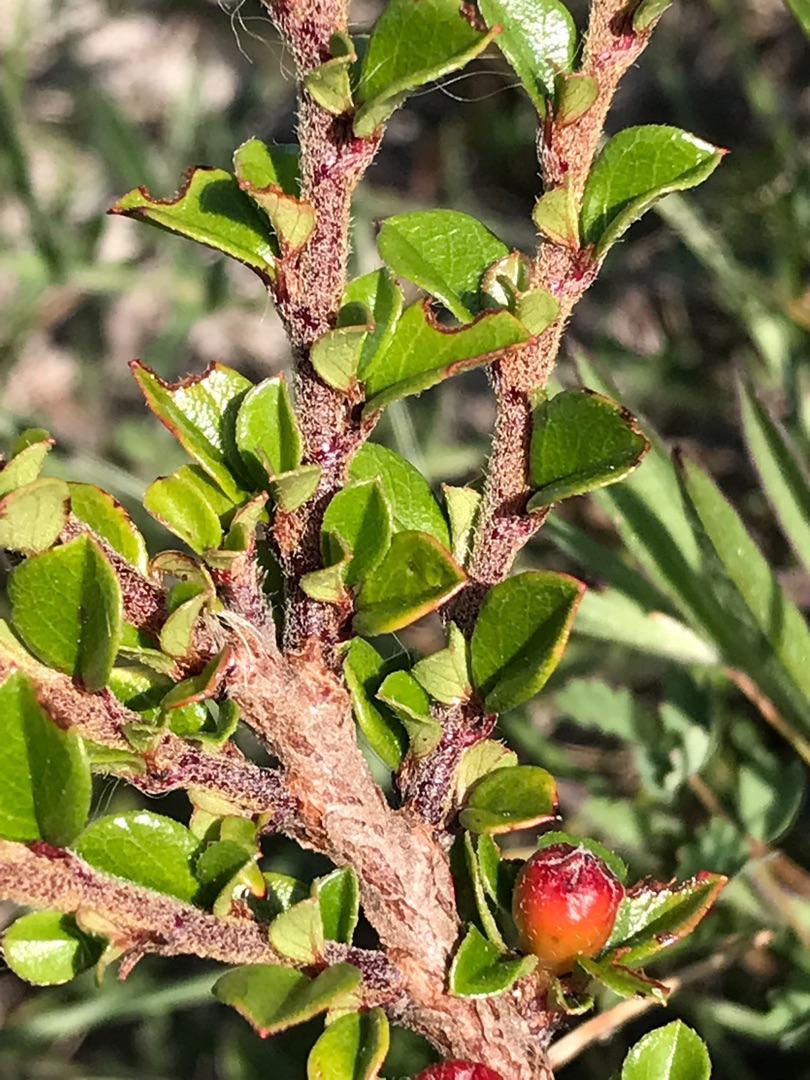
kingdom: Plantae
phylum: Tracheophyta
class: Magnoliopsida
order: Rosales
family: Rosaceae
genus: Cotoneaster
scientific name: Cotoneaster horizontalis
